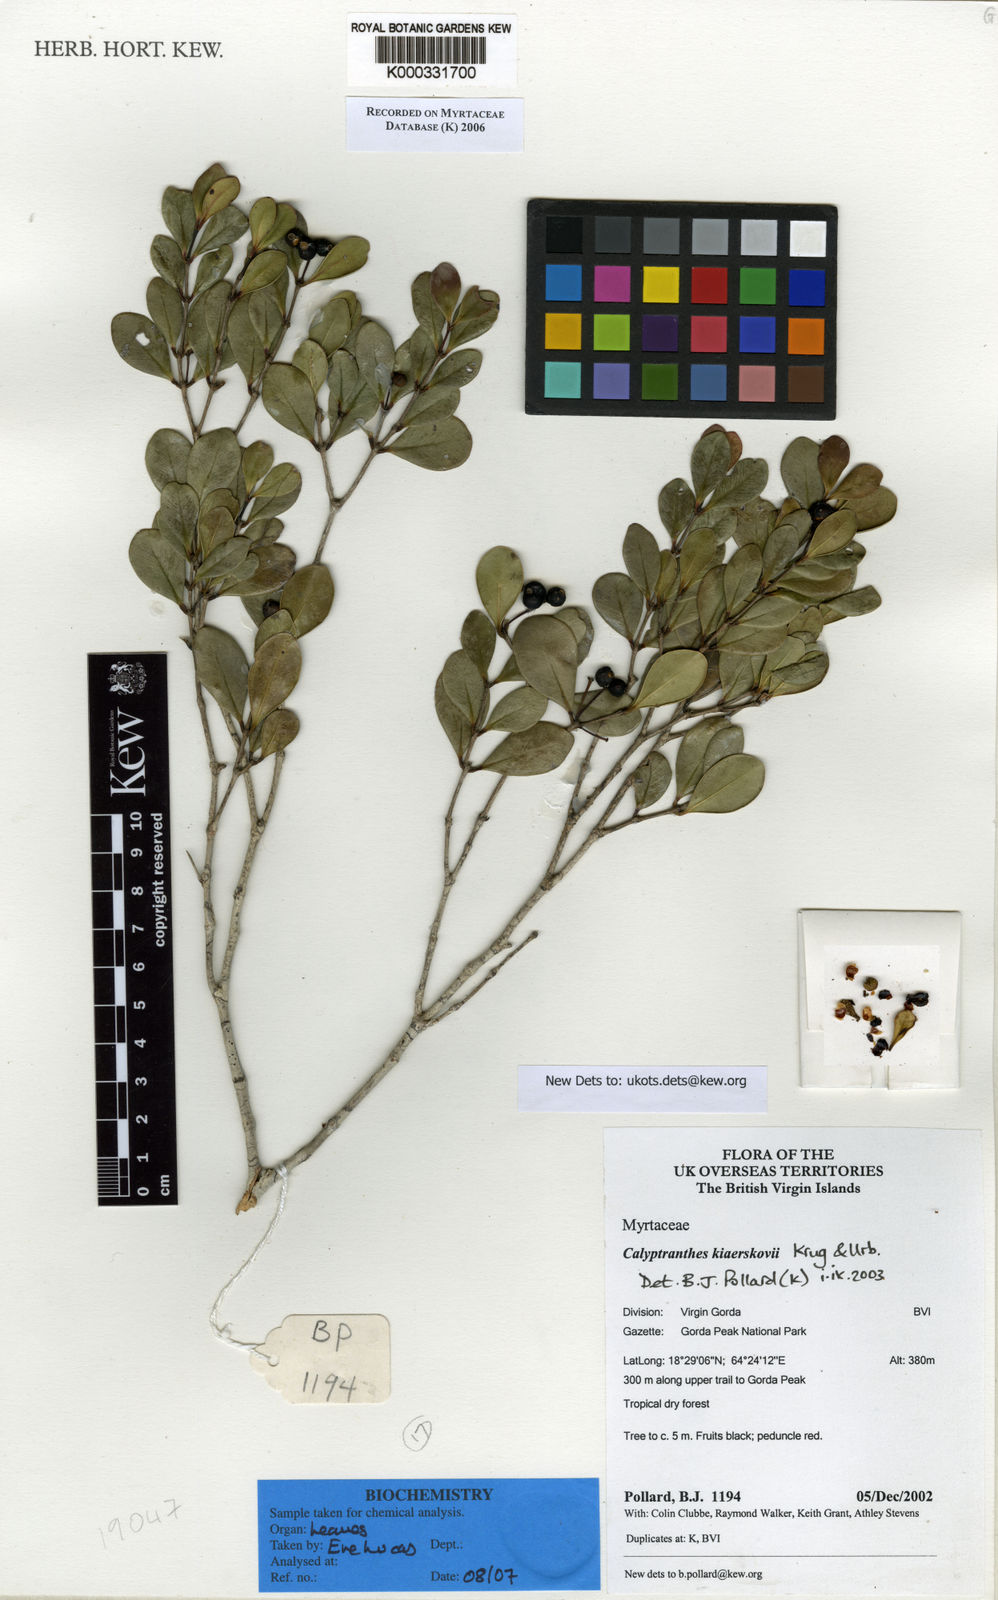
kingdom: Plantae
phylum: Tracheophyta
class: Magnoliopsida
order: Myrtales
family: Myrtaceae
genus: Myrcia
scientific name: Myrcia neokiaerskovii
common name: Kiaerskovii lidflower
